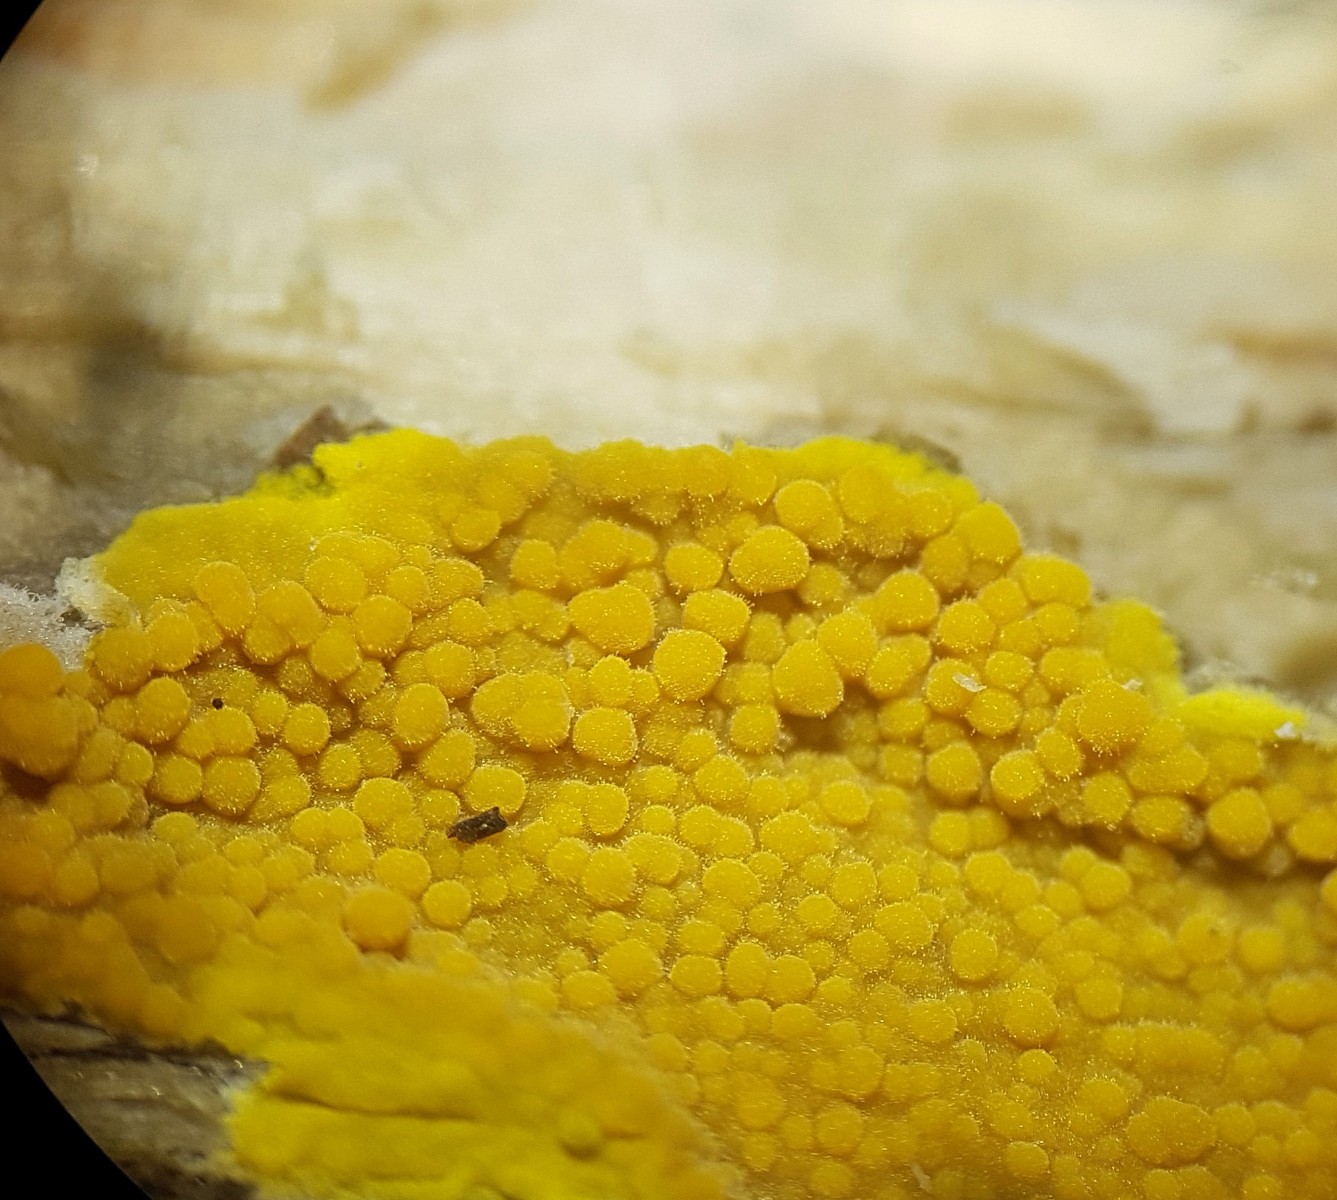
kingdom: Fungi
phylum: Basidiomycota
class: Agaricomycetes
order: Polyporales
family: Meruliaceae
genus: Phlebiodontia
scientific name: Phlebiodontia subochracea
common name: svovl-åresvamp
